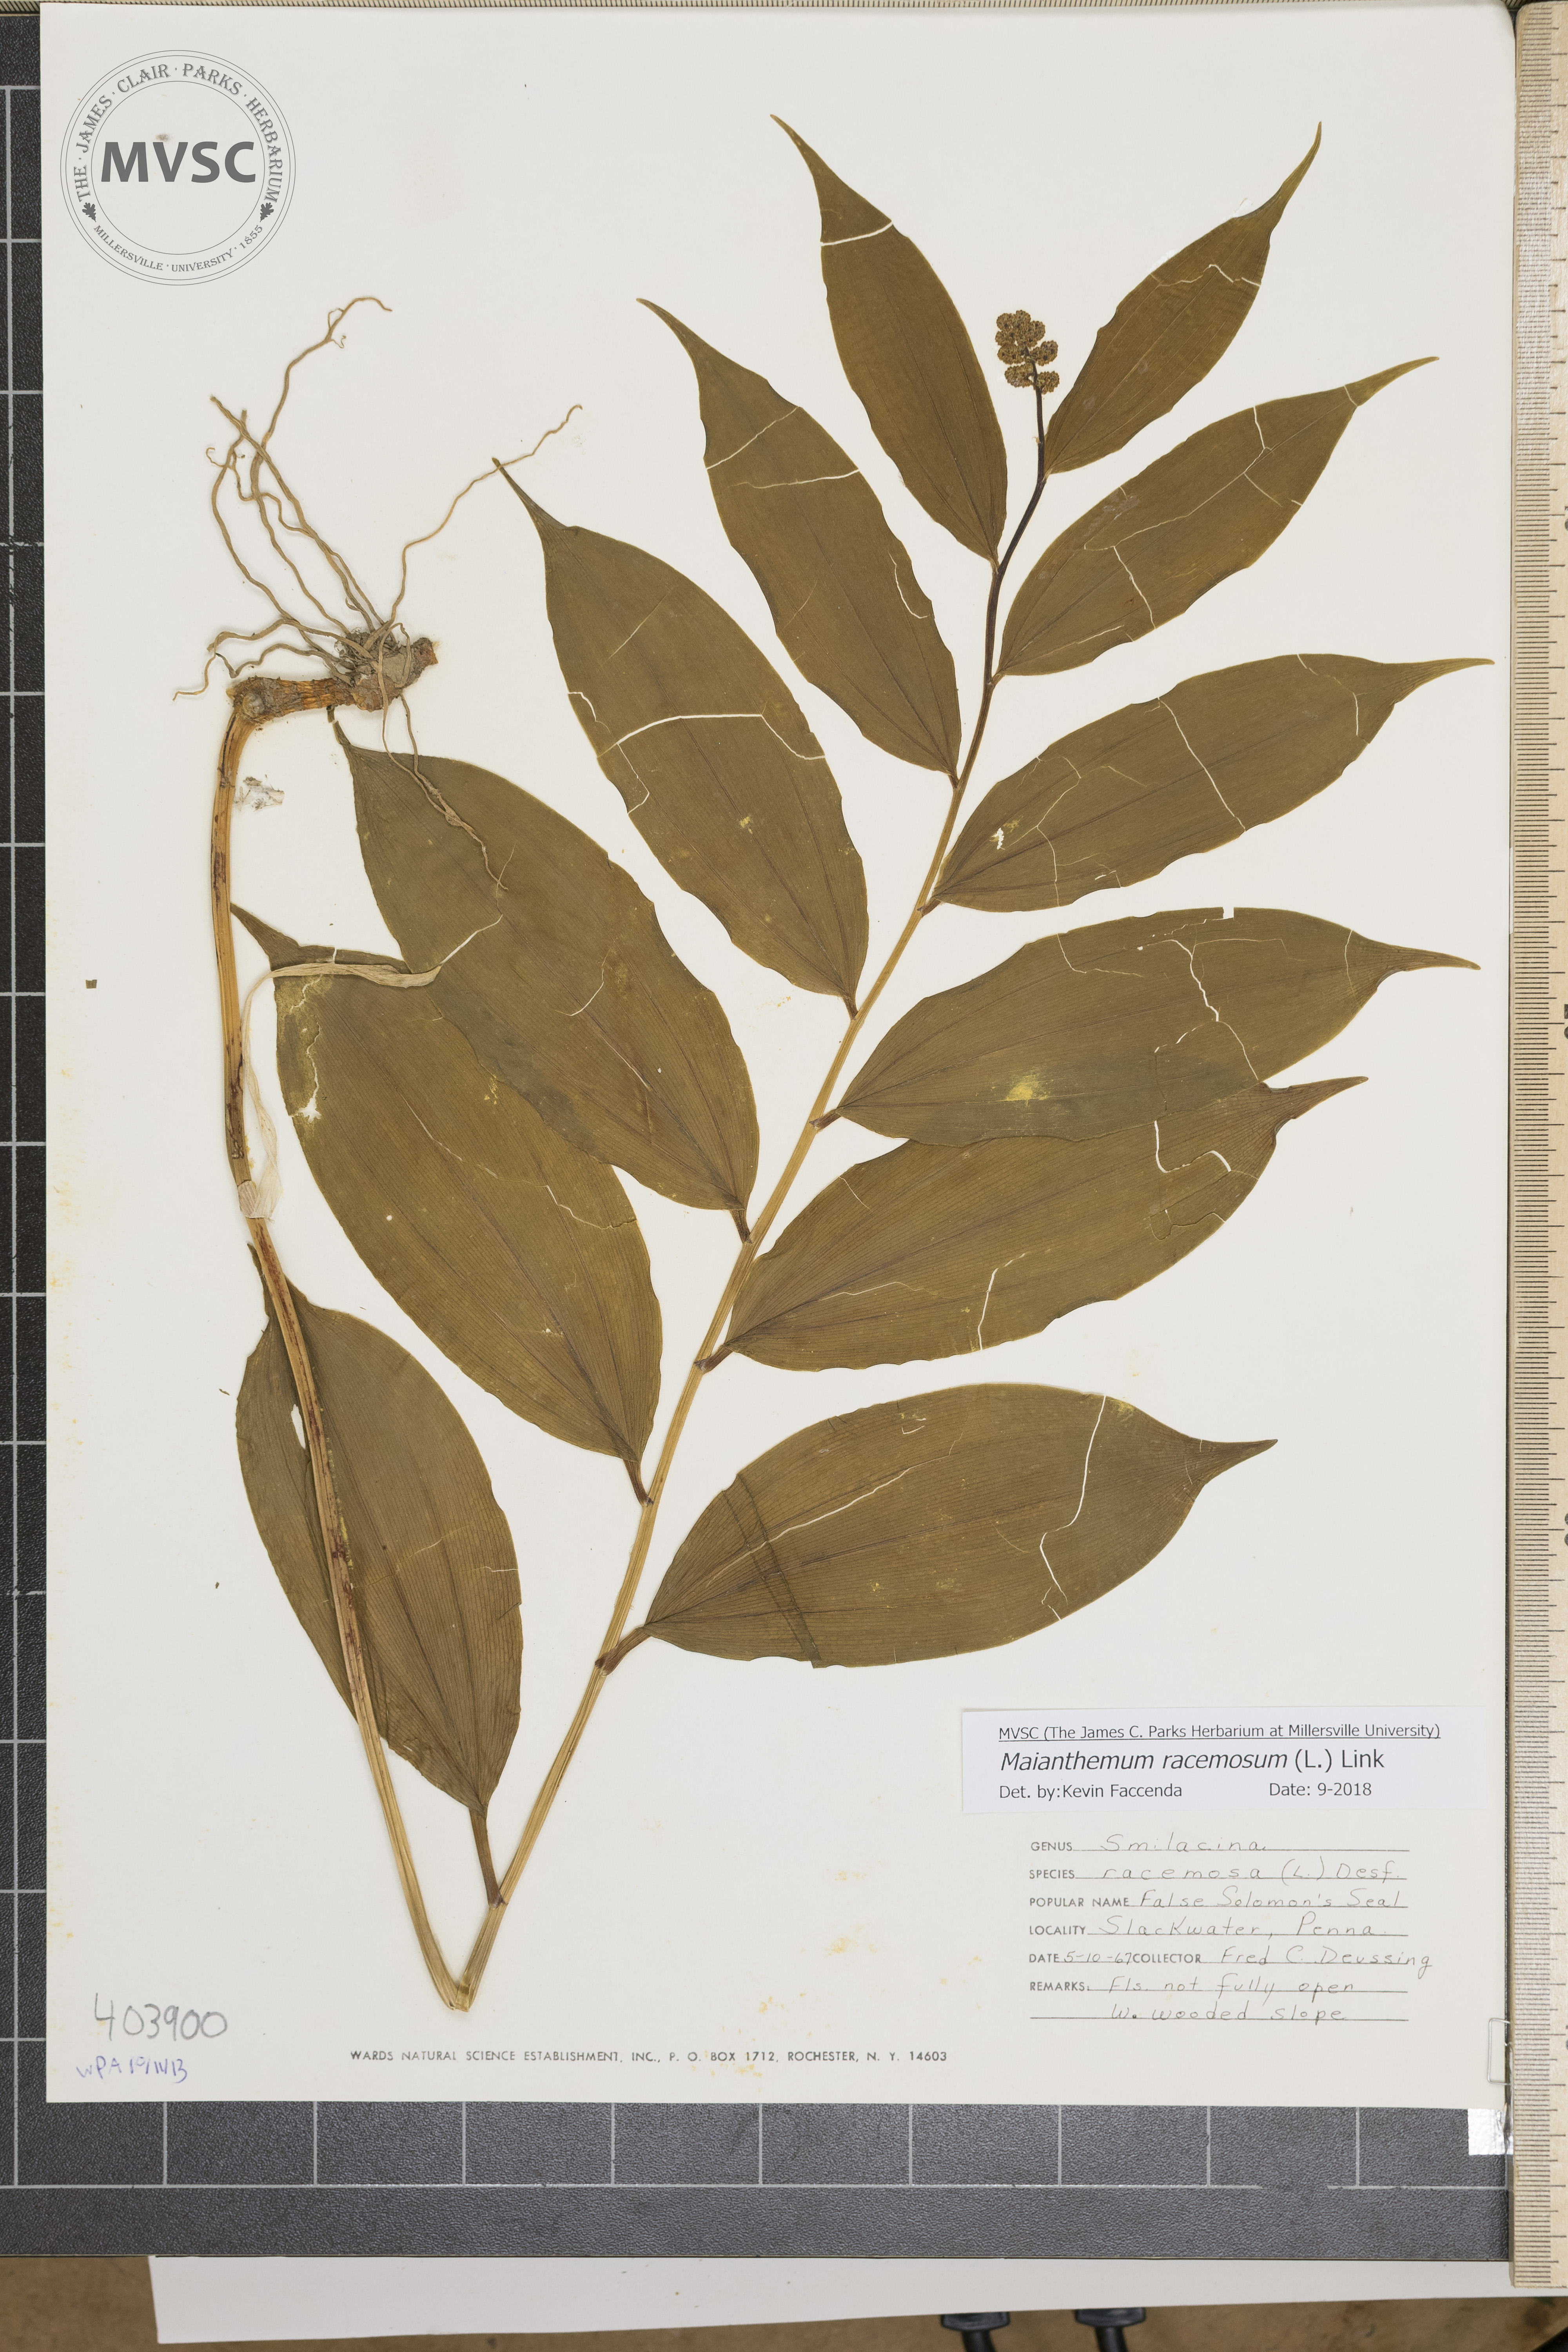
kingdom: Plantae
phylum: Tracheophyta
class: Liliopsida
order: Asparagales
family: Asparagaceae
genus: Maianthemum
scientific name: Maianthemum racemosum
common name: False spikenard
